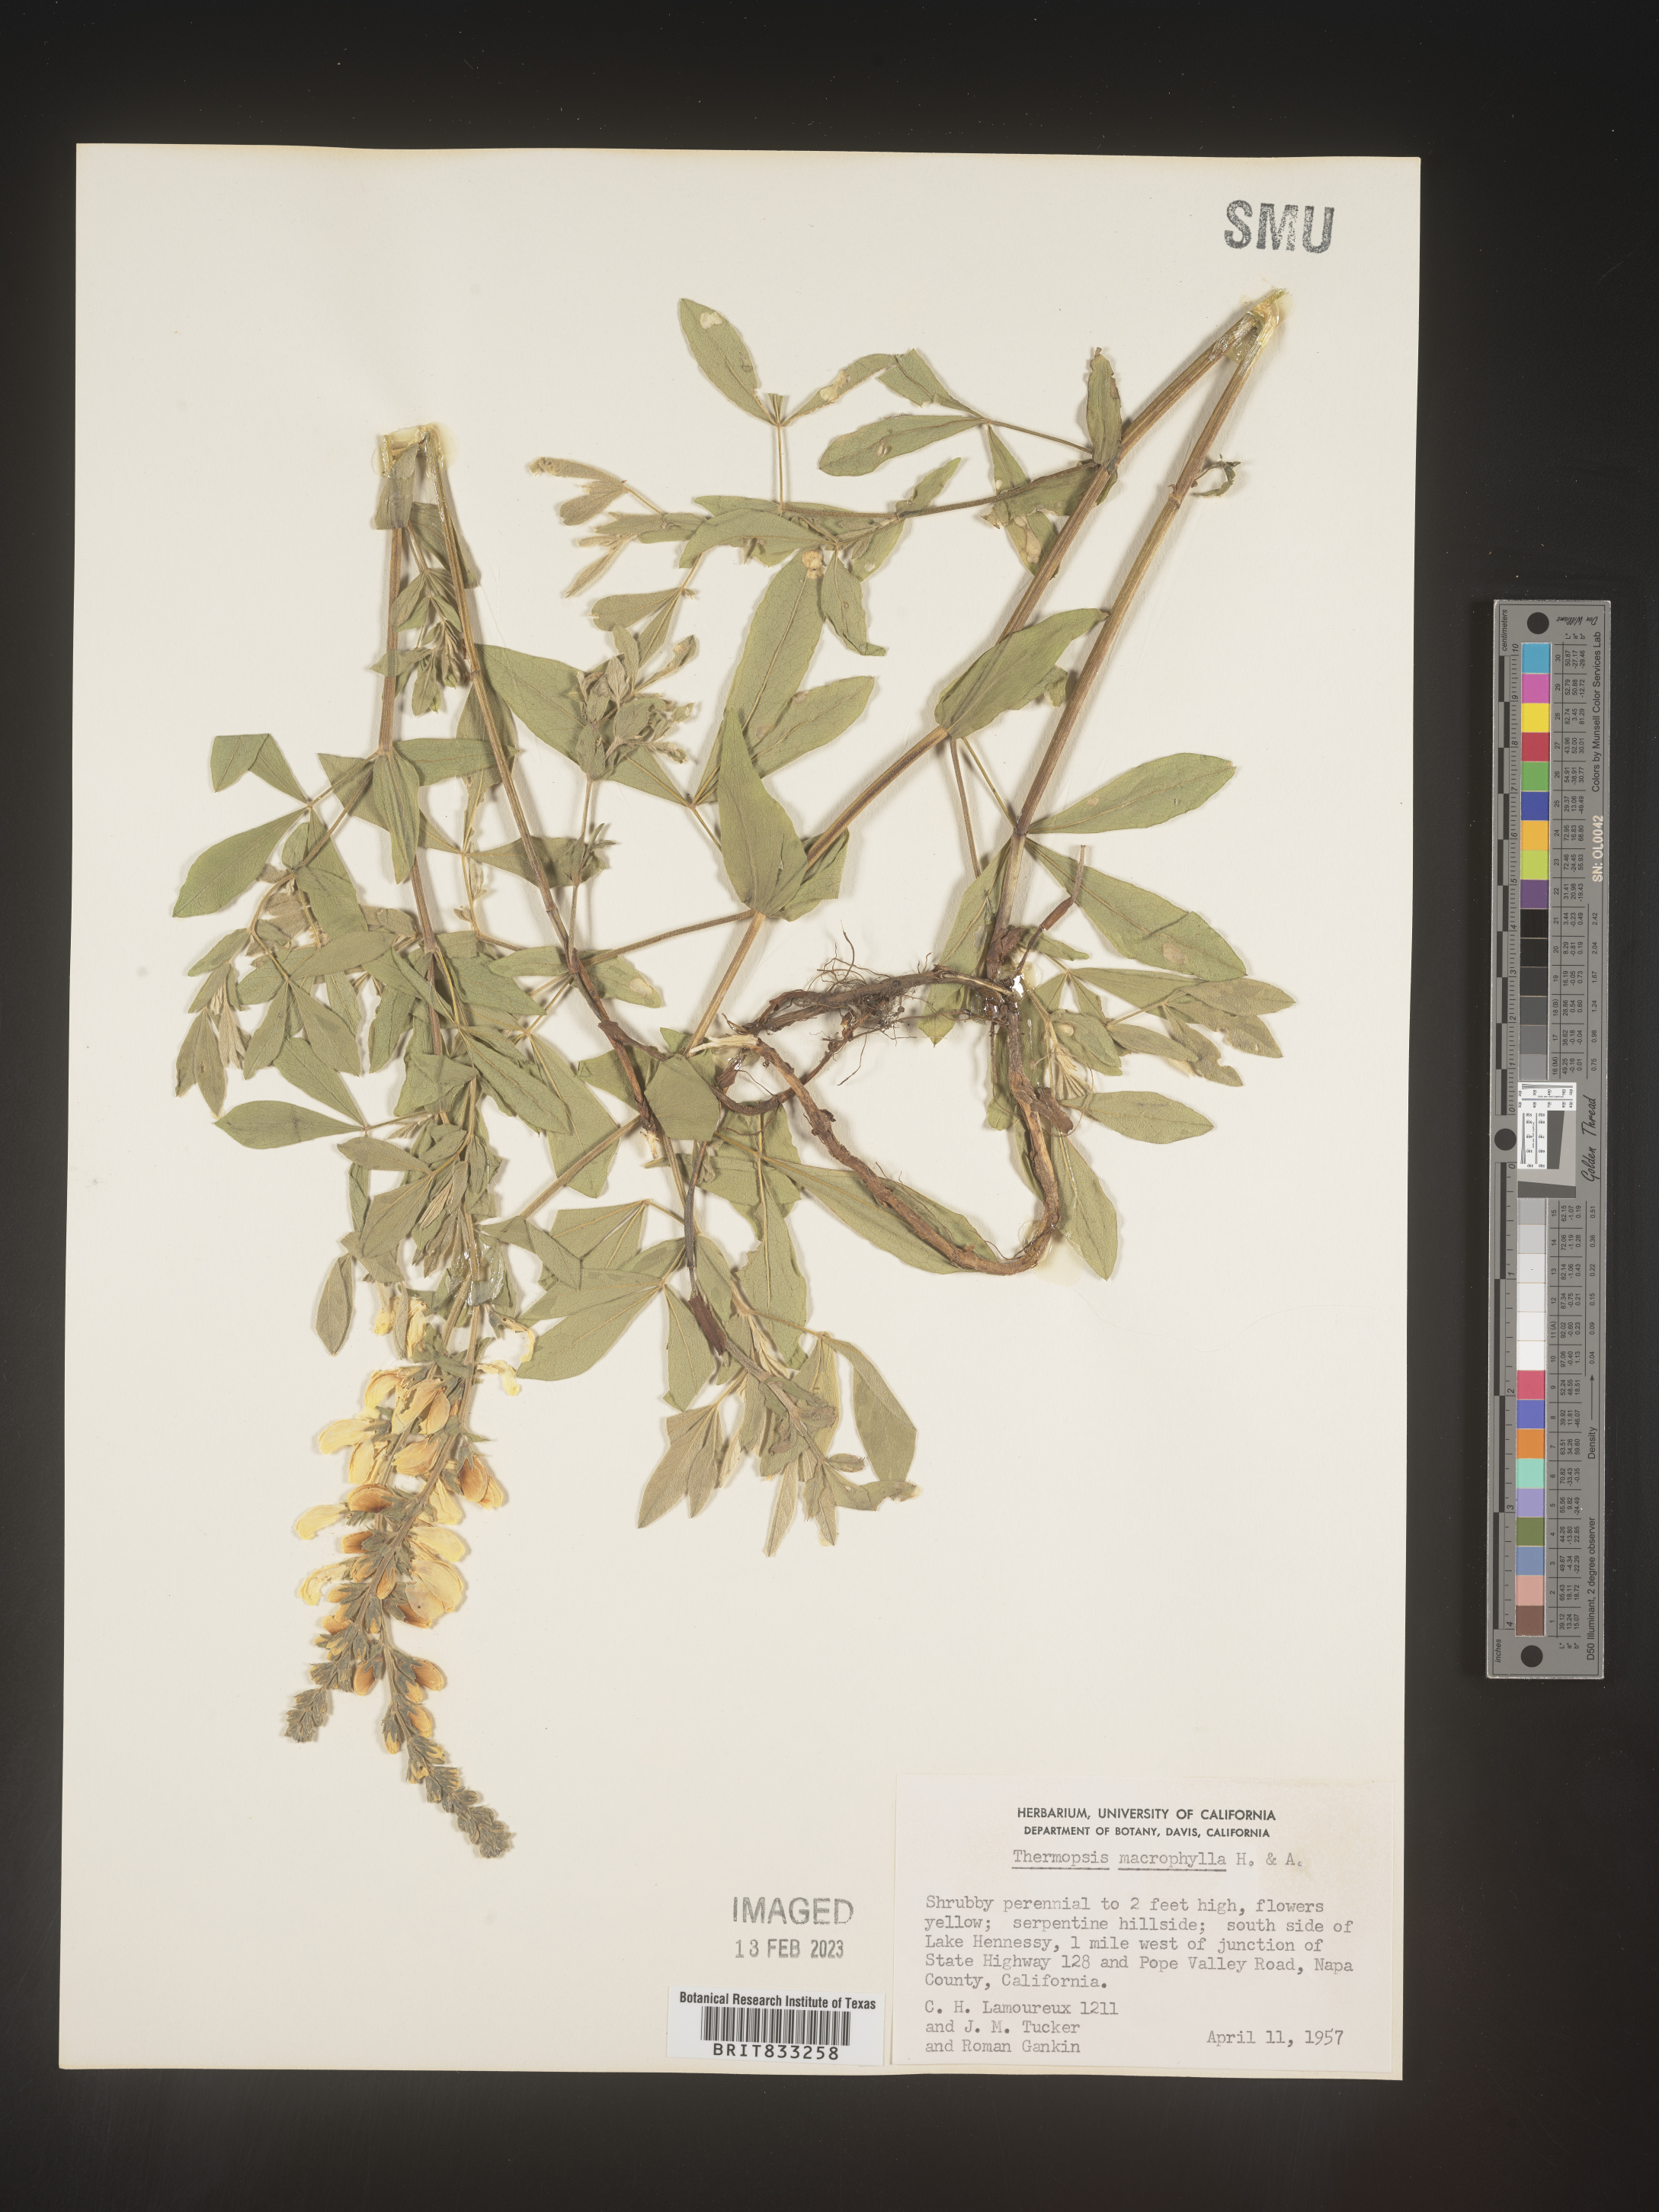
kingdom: Plantae
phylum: Tracheophyta
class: Magnoliopsida
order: Fabales
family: Fabaceae
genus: Thermopsis
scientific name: Thermopsis macrophylla
